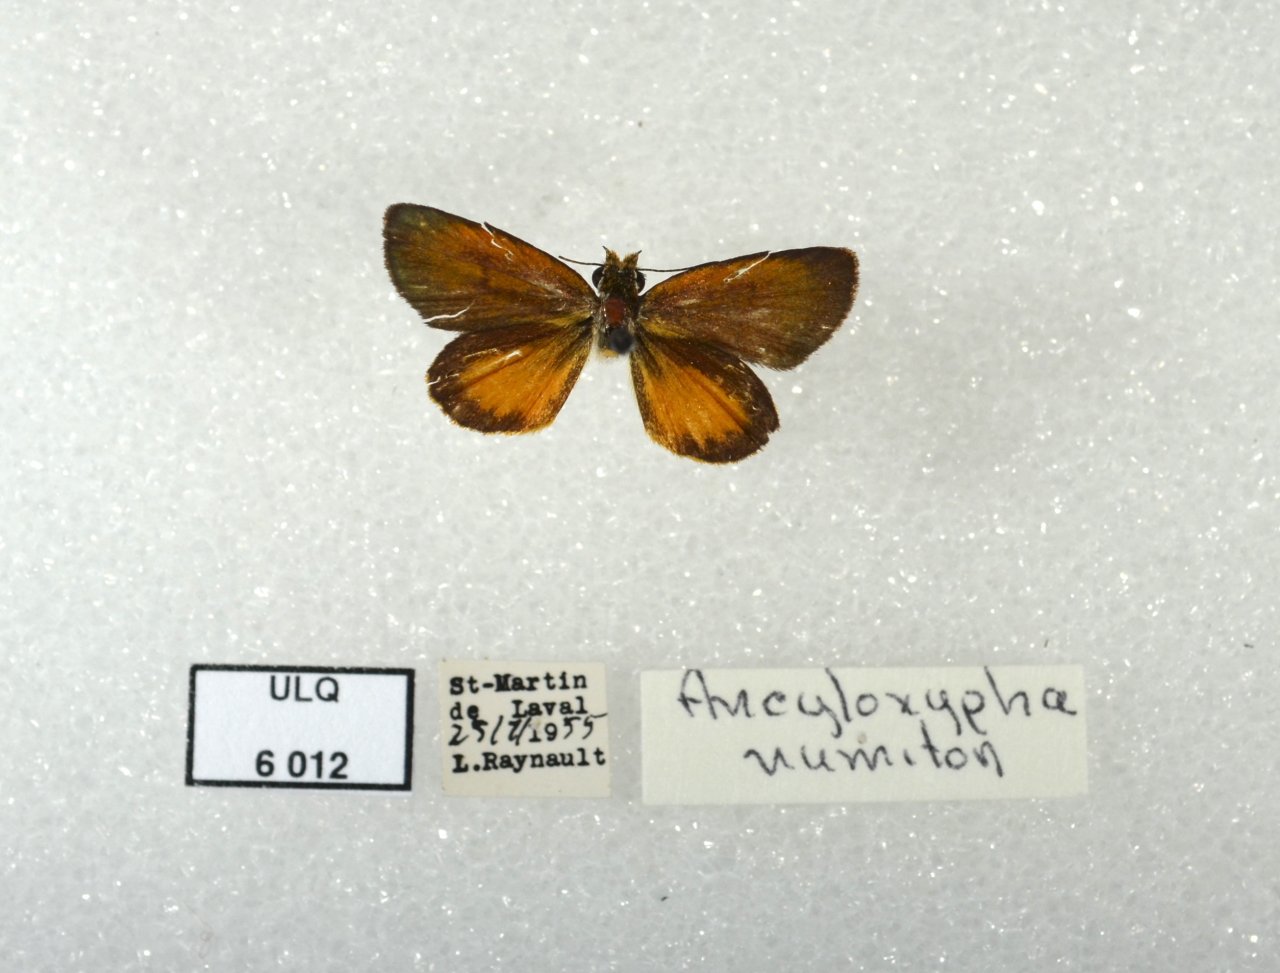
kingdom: Animalia
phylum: Arthropoda
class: Insecta
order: Lepidoptera
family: Hesperiidae
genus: Ancyloxypha
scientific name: Ancyloxypha numitor
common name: Least Skipper
